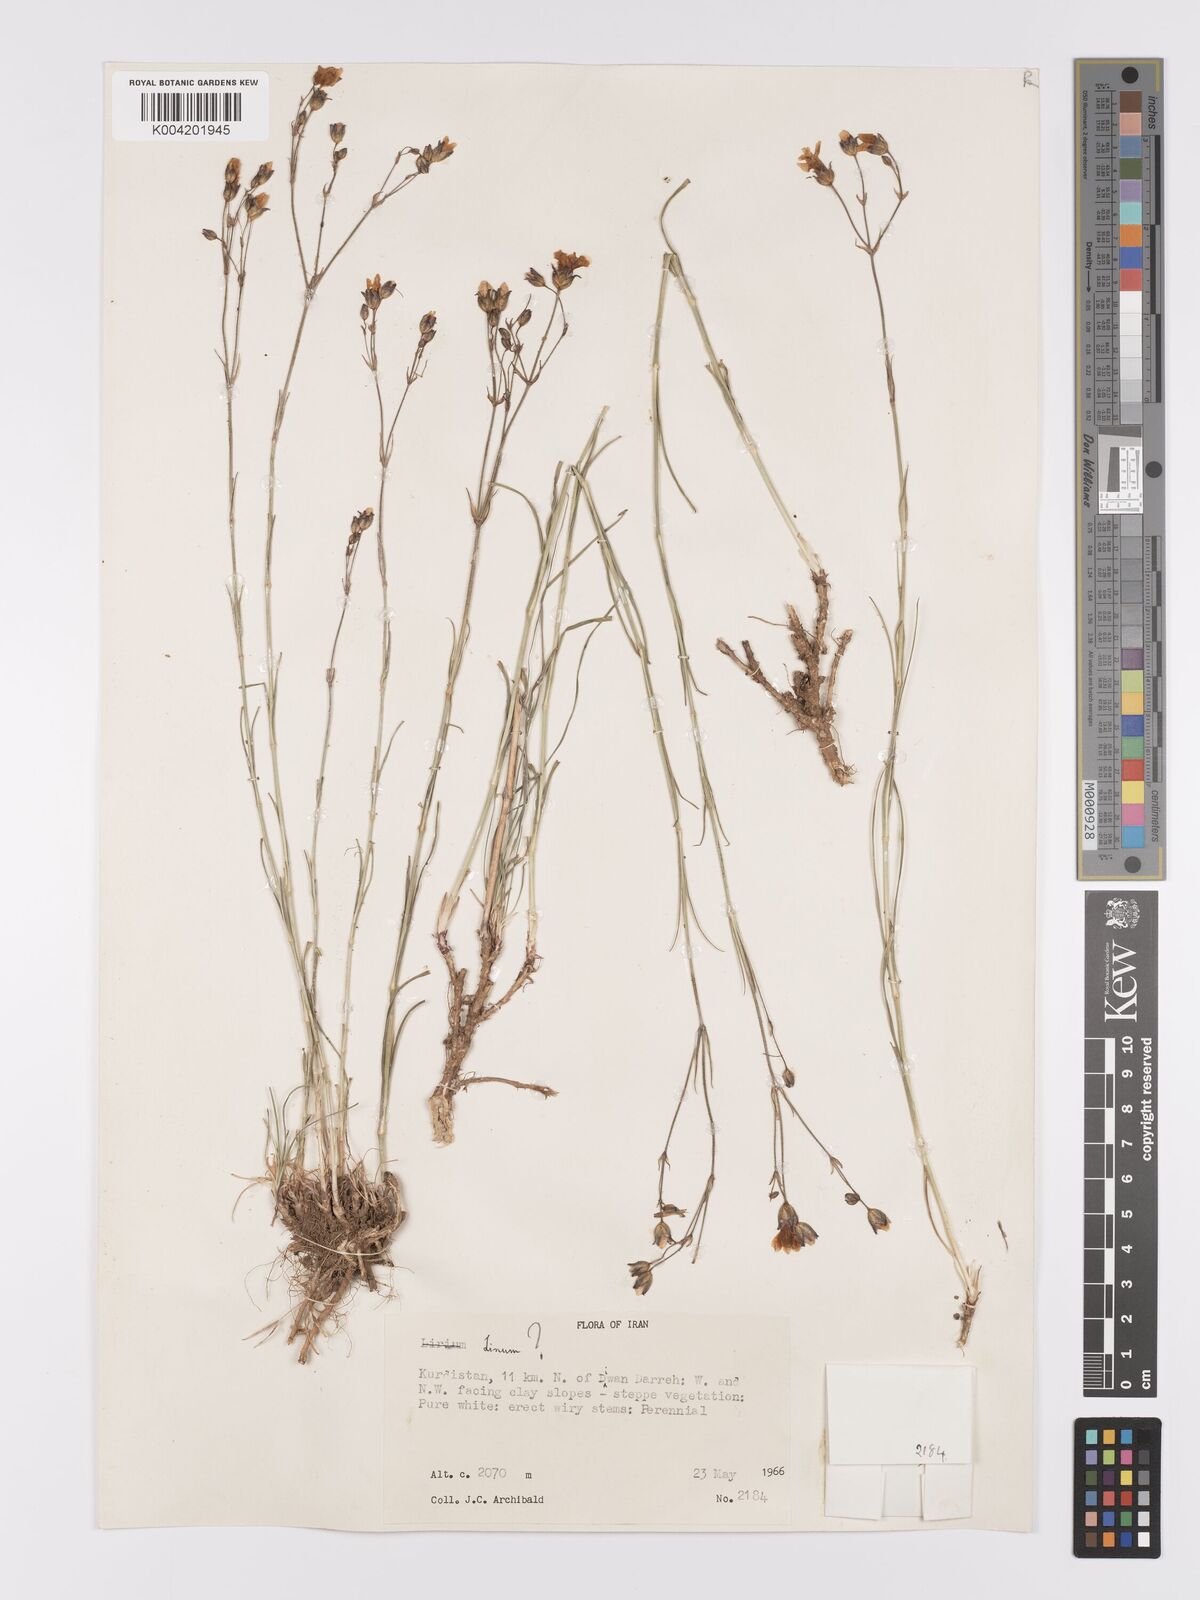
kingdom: Plantae
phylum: Tracheophyta
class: Magnoliopsida
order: Malpighiales
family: Linaceae
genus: Linum
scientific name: Linum
